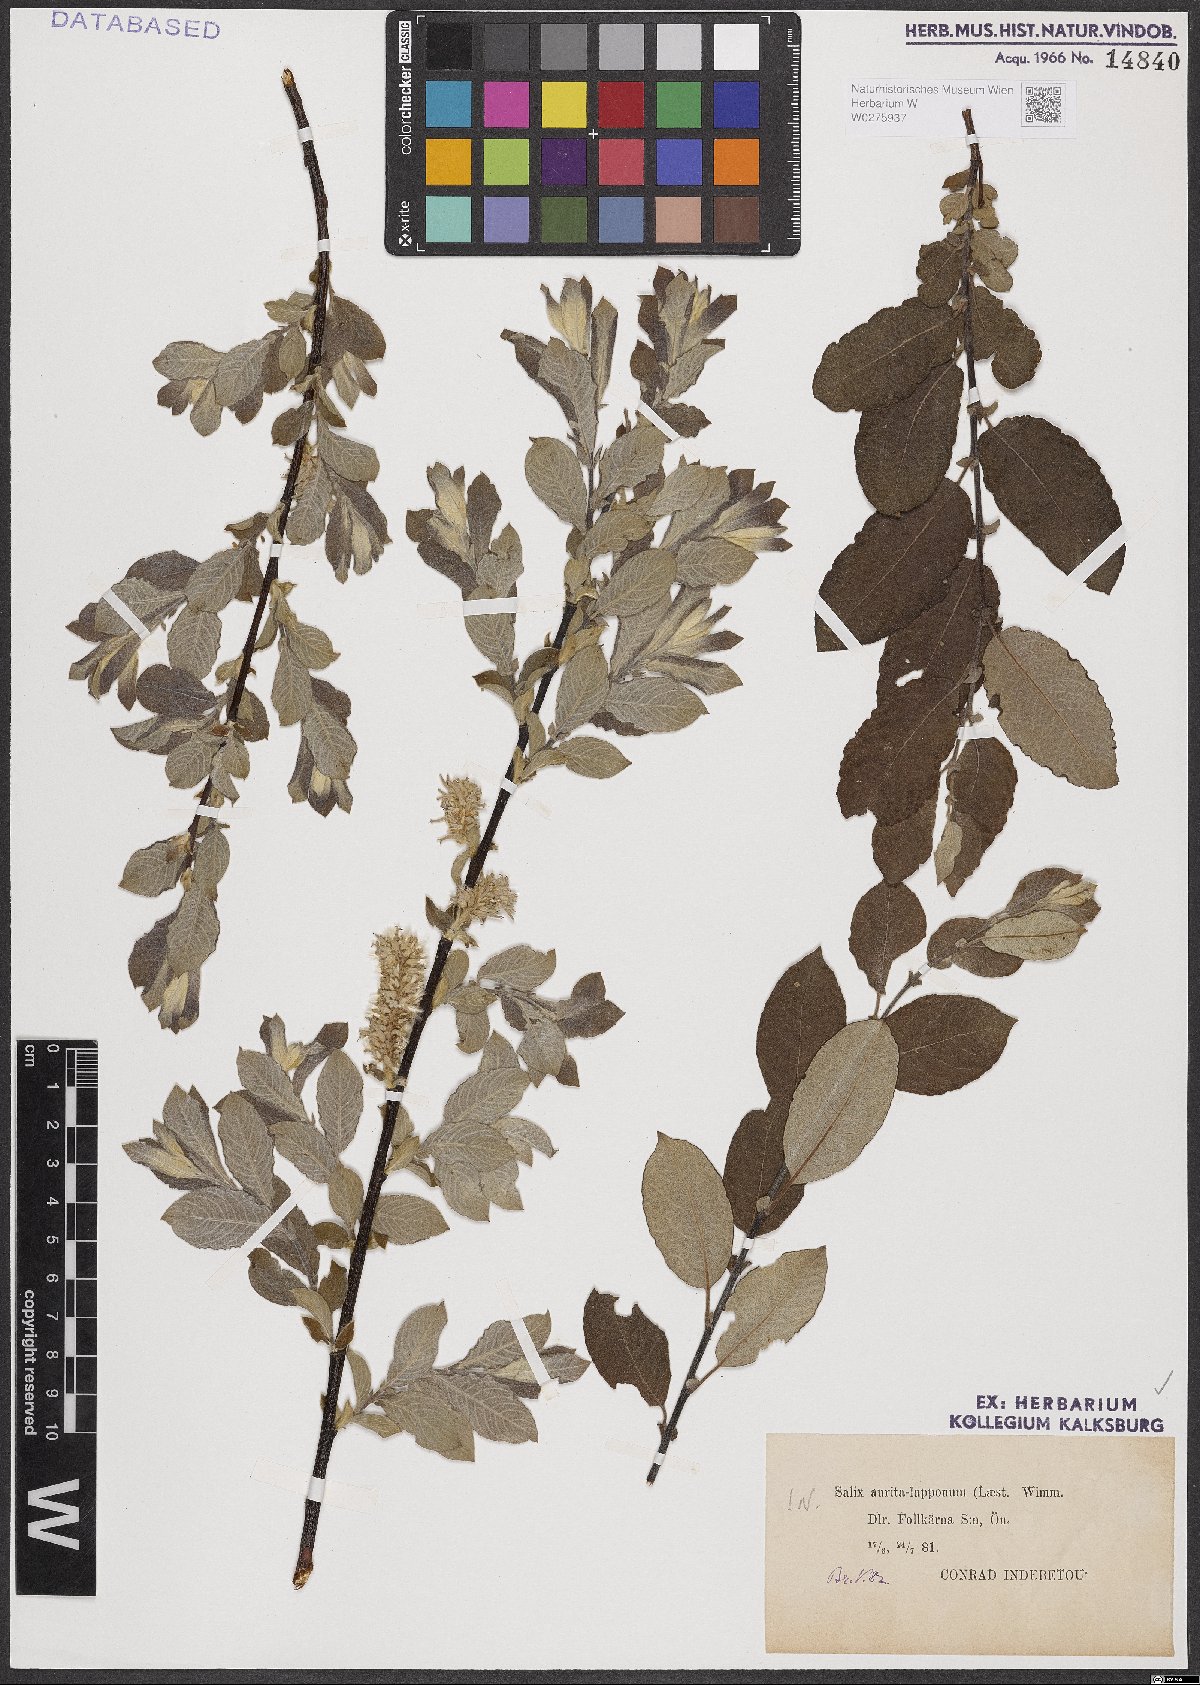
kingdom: Plantae
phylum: Tracheophyta
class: Magnoliopsida
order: Malpighiales
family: Salicaceae
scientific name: Salicaceae
